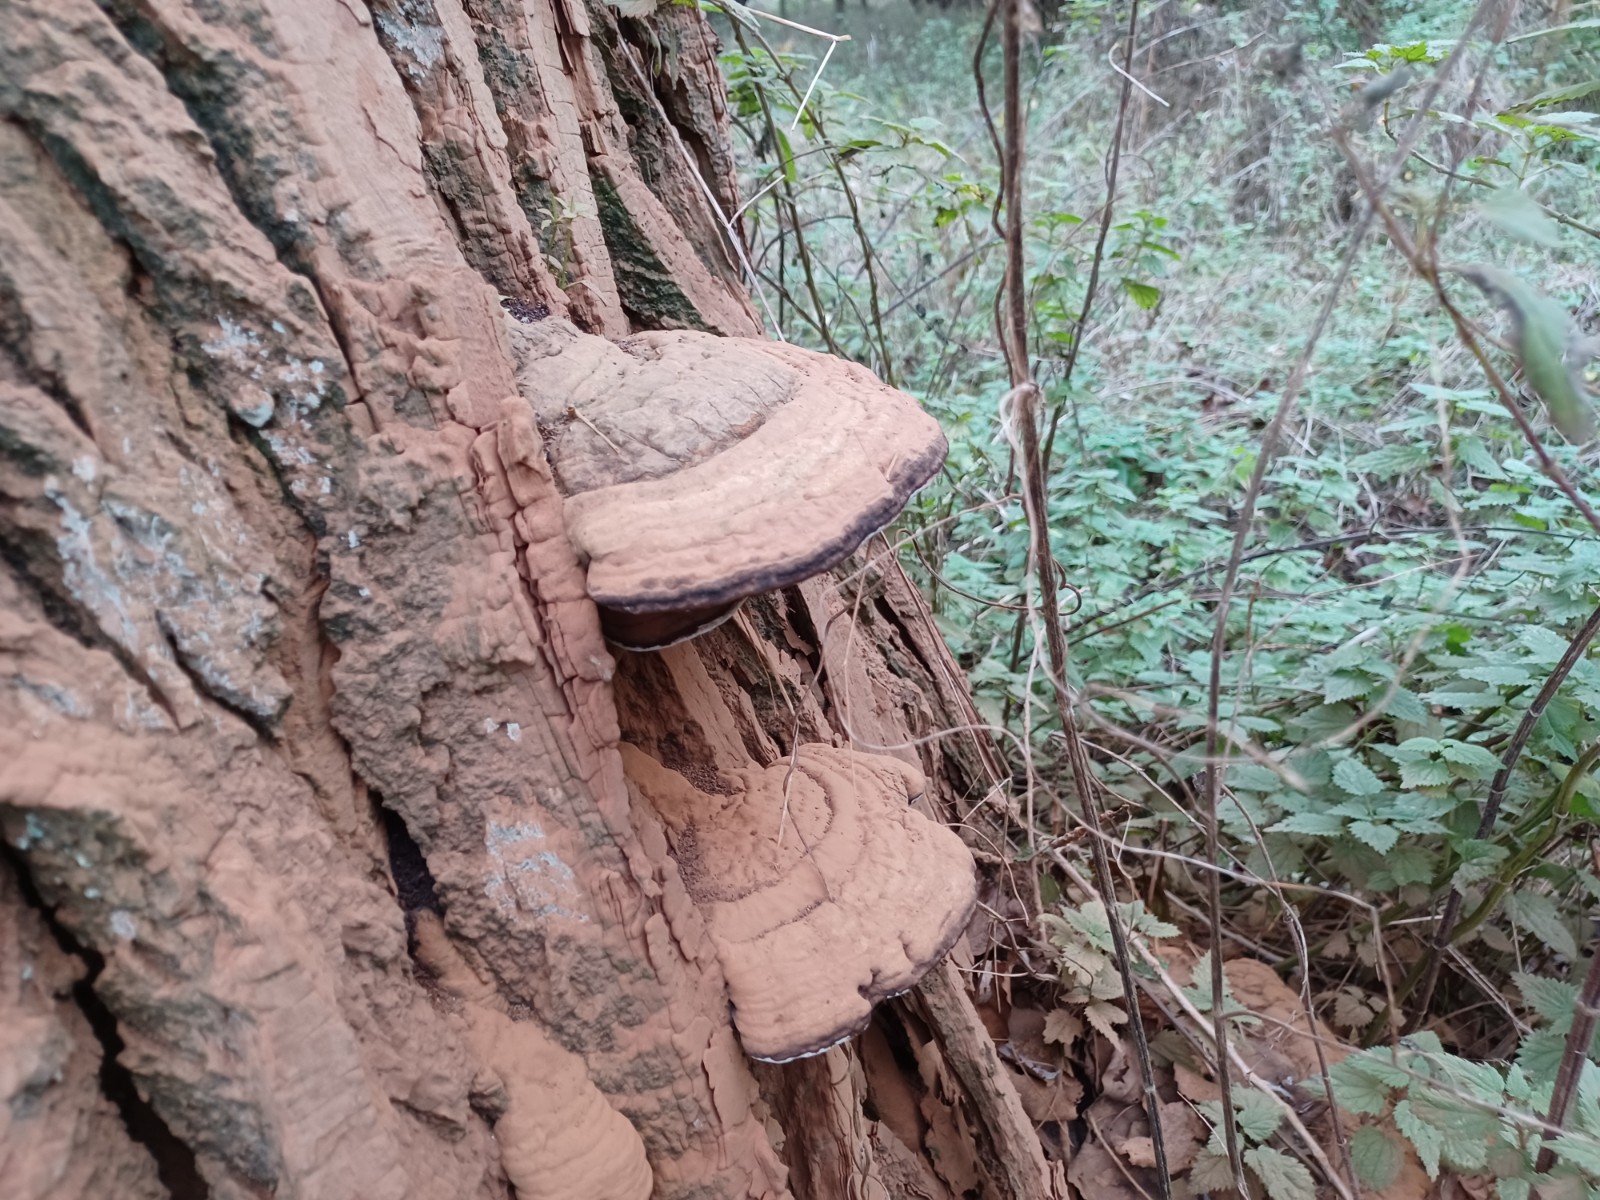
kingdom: Fungi
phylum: Basidiomycota
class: Agaricomycetes
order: Polyporales
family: Polyporaceae
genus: Ganoderma
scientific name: Ganoderma applanatum
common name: flad lakporesvamp
